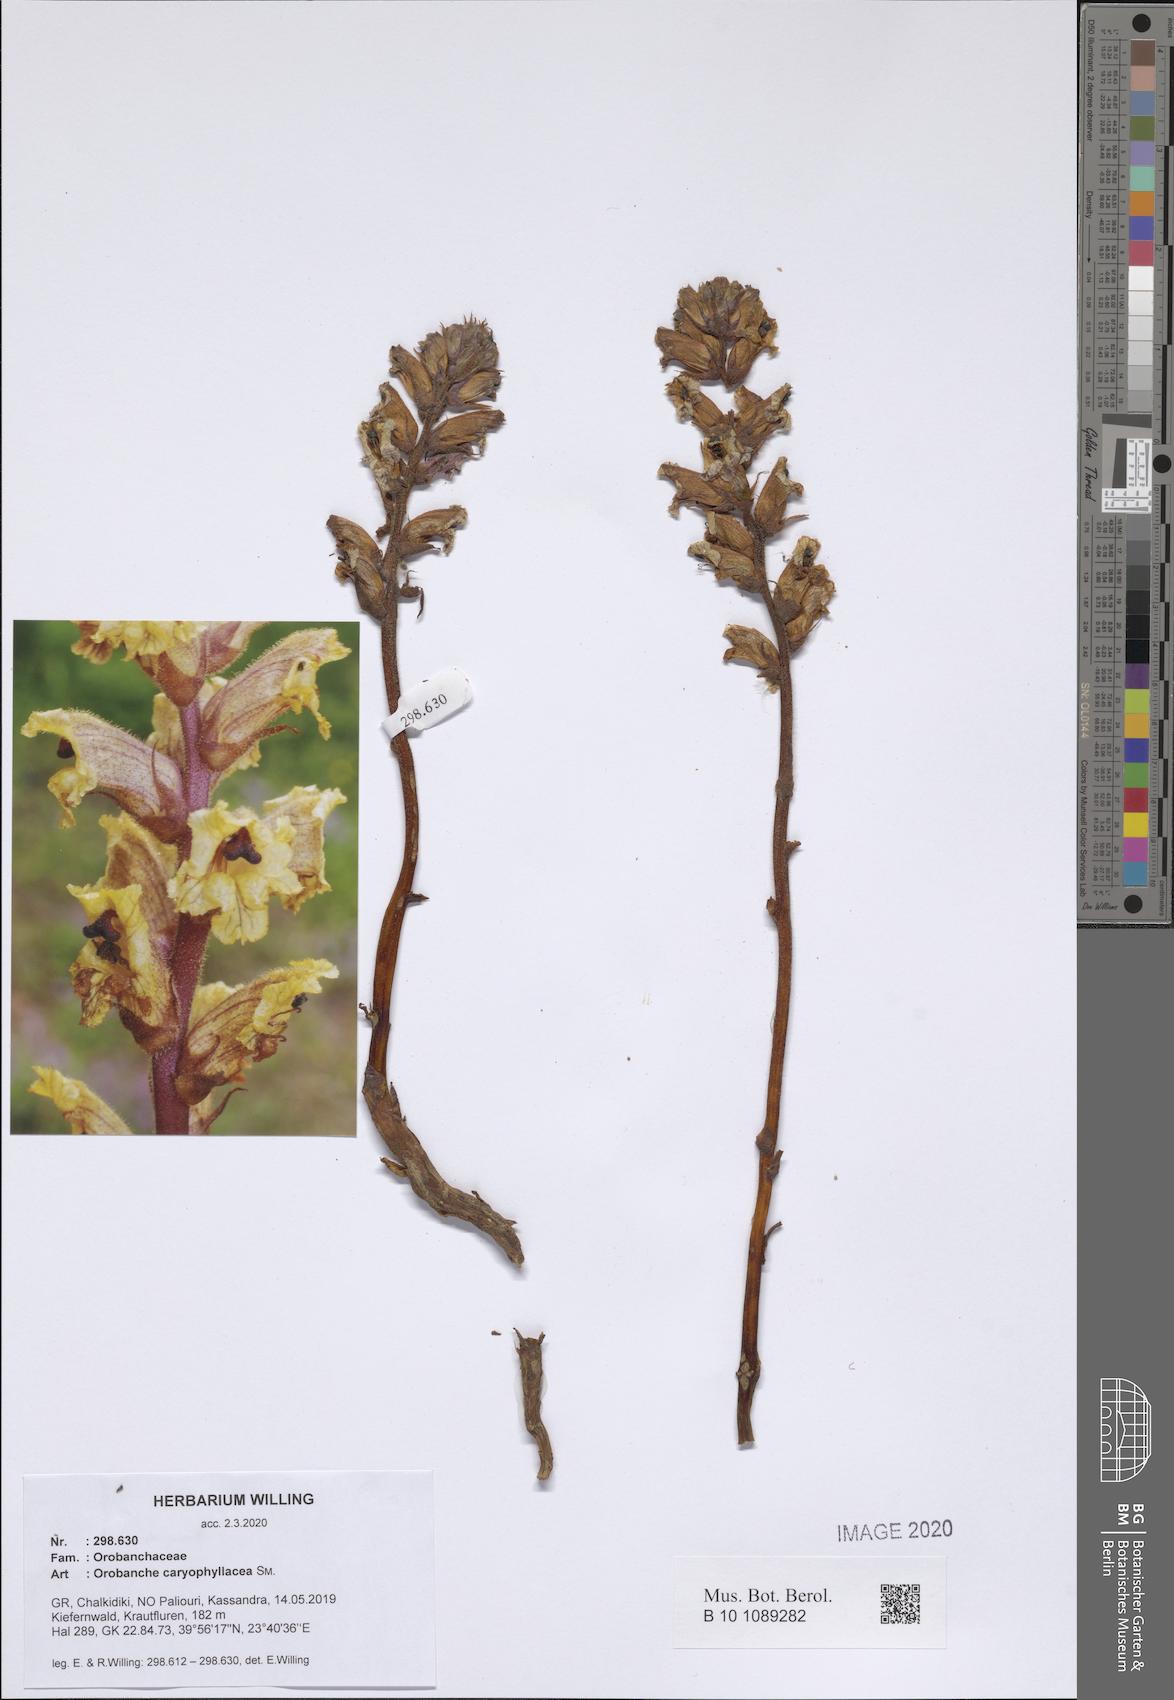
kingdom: Plantae
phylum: Tracheophyta
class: Magnoliopsida
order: Lamiales
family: Orobanchaceae
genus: Orobanche
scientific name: Orobanche caryophyllacea
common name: Bedstraw broomrape
